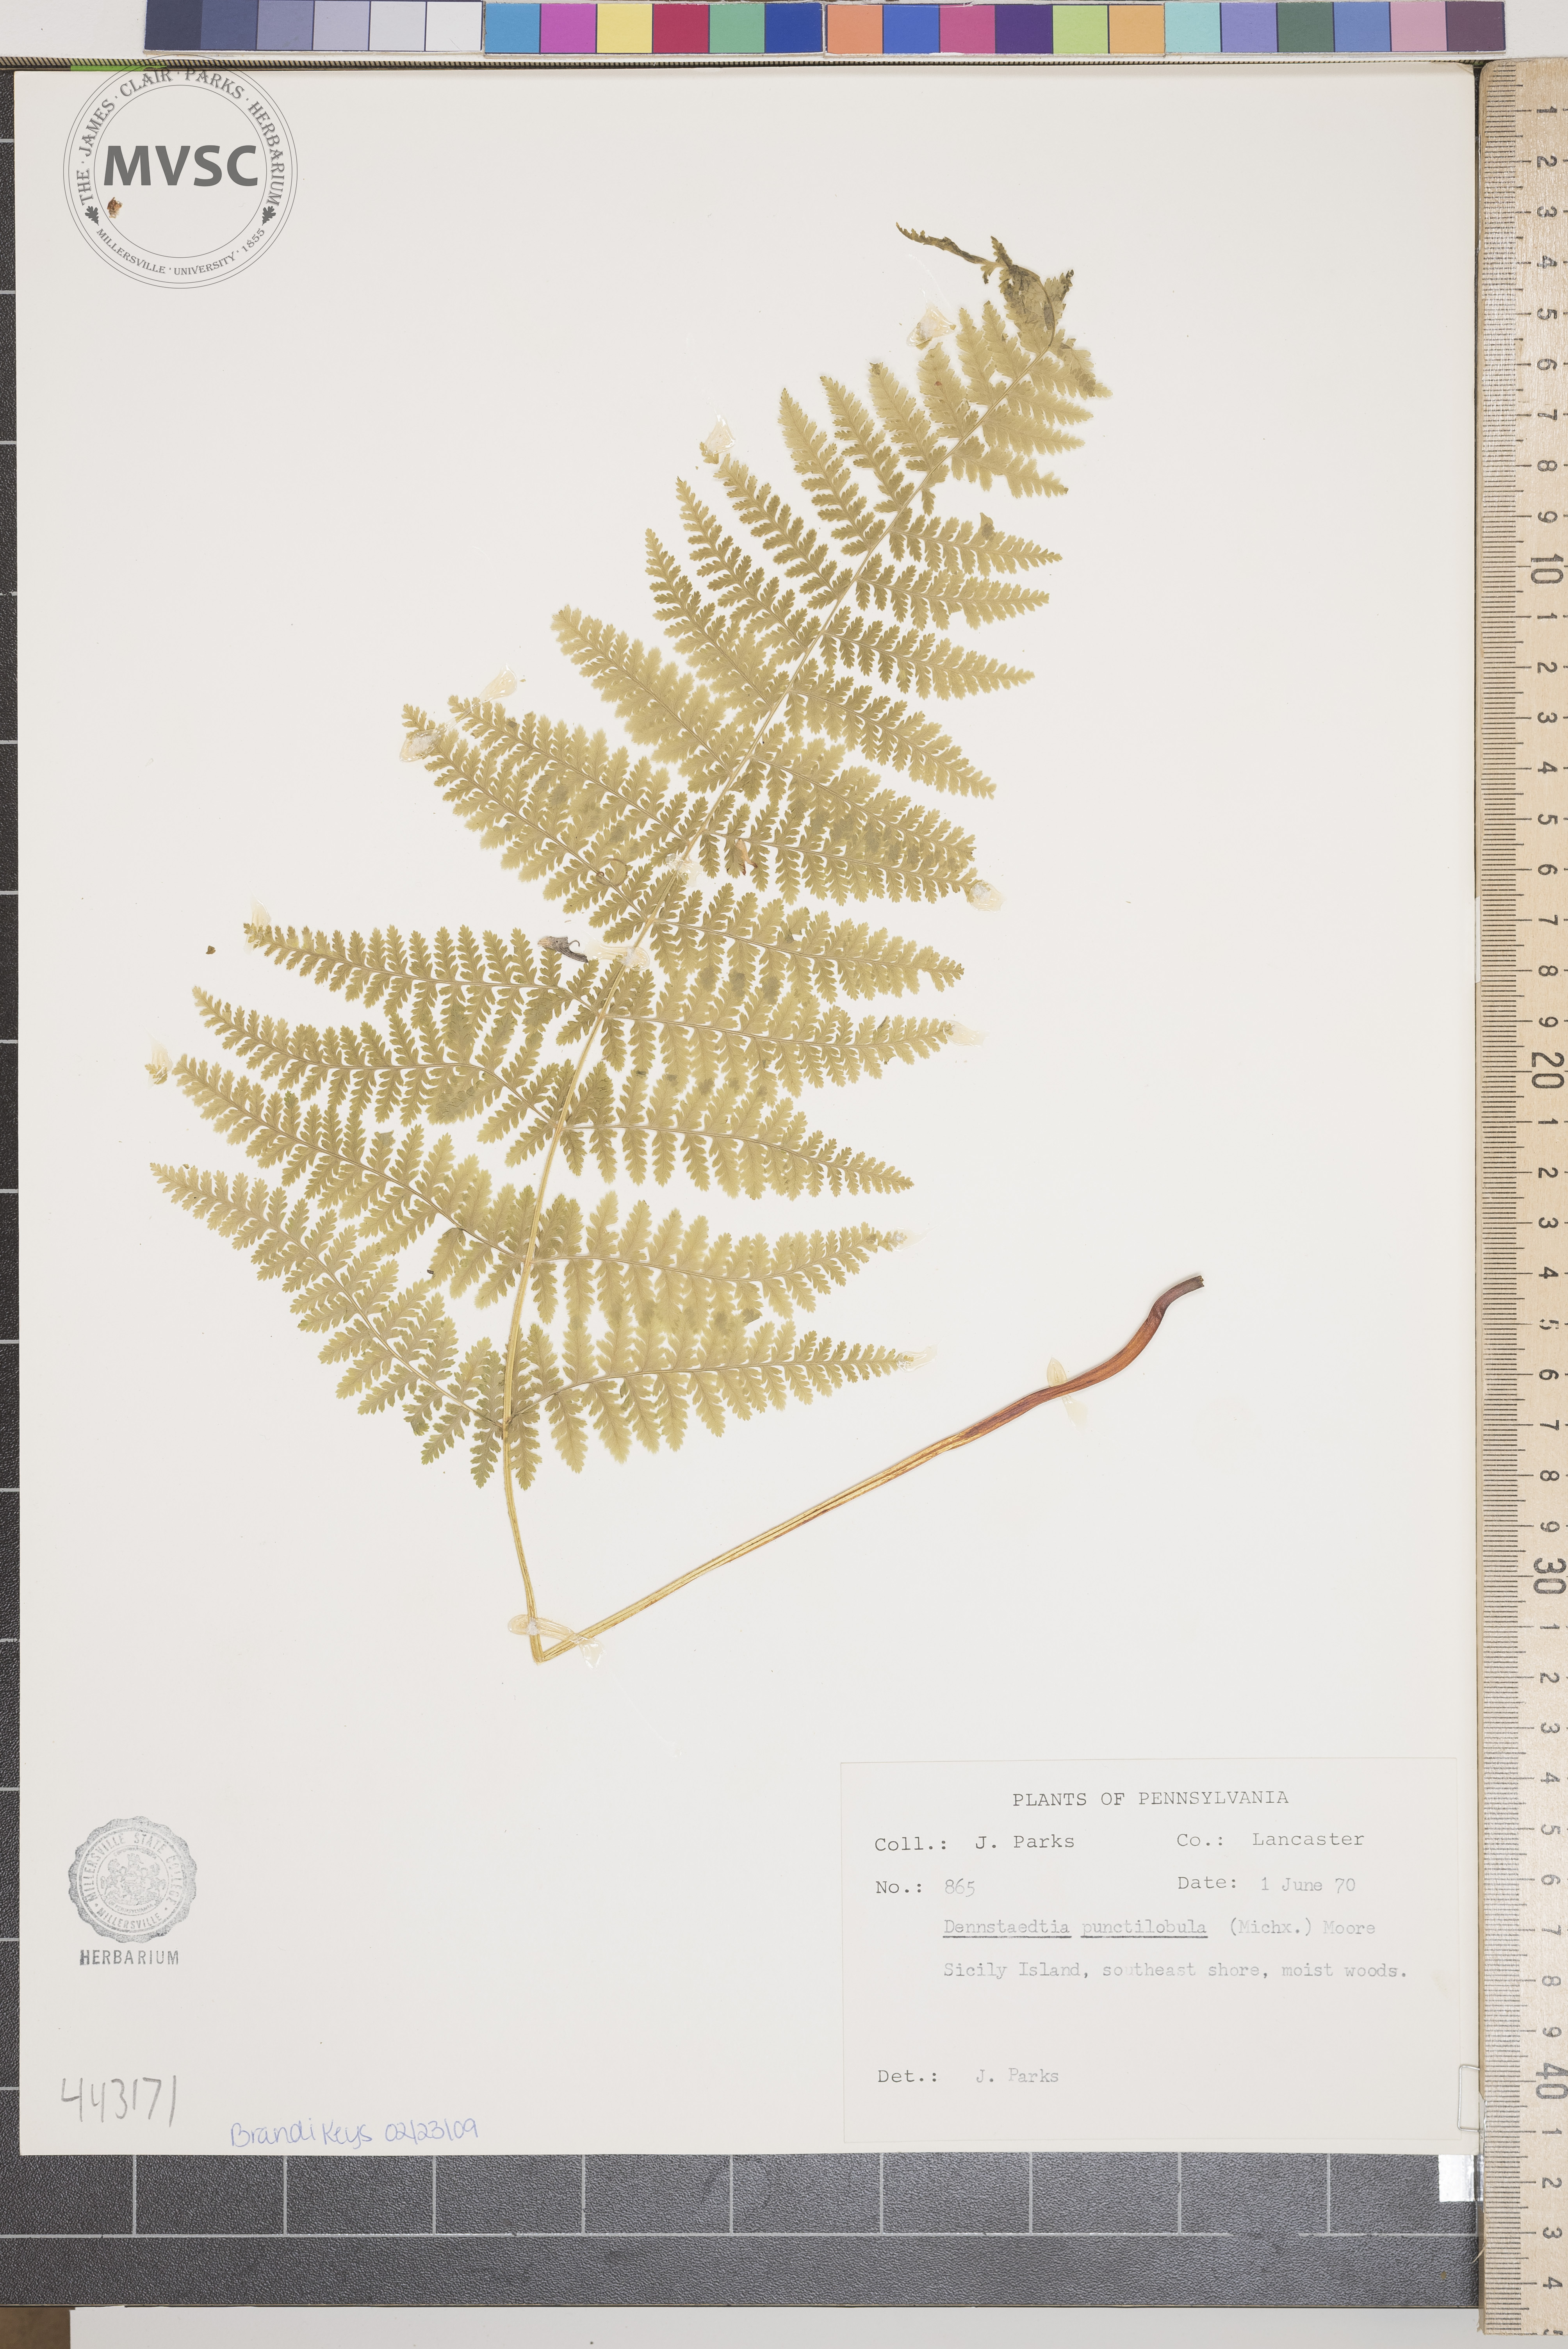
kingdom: Plantae
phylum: Tracheophyta
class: Polypodiopsida
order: Polypodiales
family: Dennstaedtiaceae
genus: Sitobolium
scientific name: Sitobolium punctilobum
